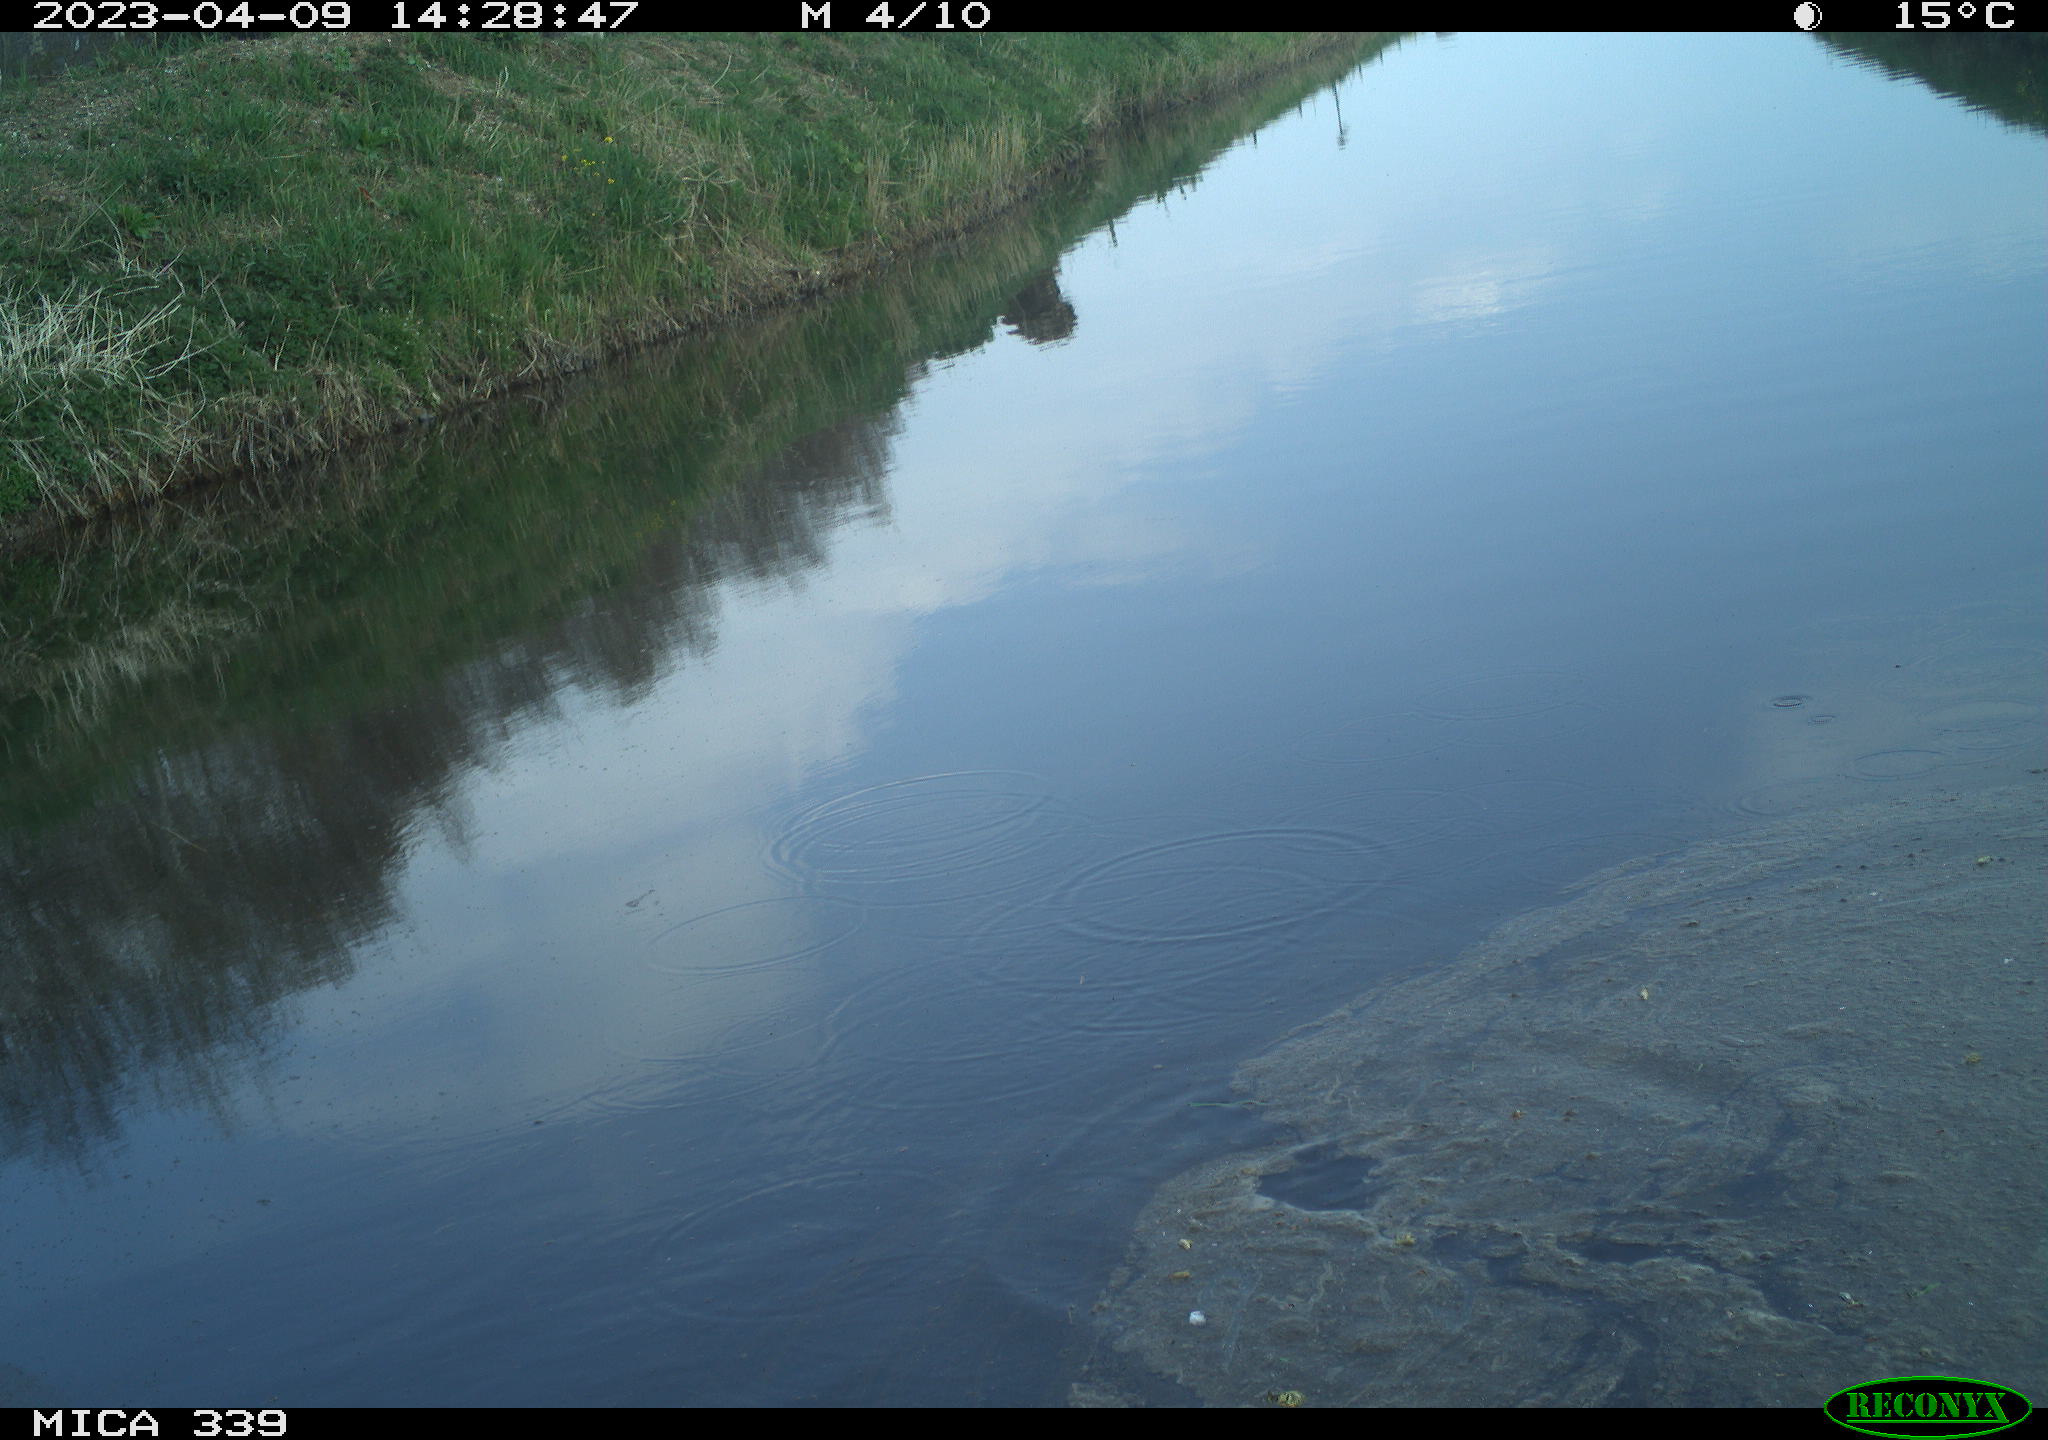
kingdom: Animalia
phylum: Chordata
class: Aves
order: Pelecaniformes
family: Ardeidae
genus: Ardea
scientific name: Ardea
